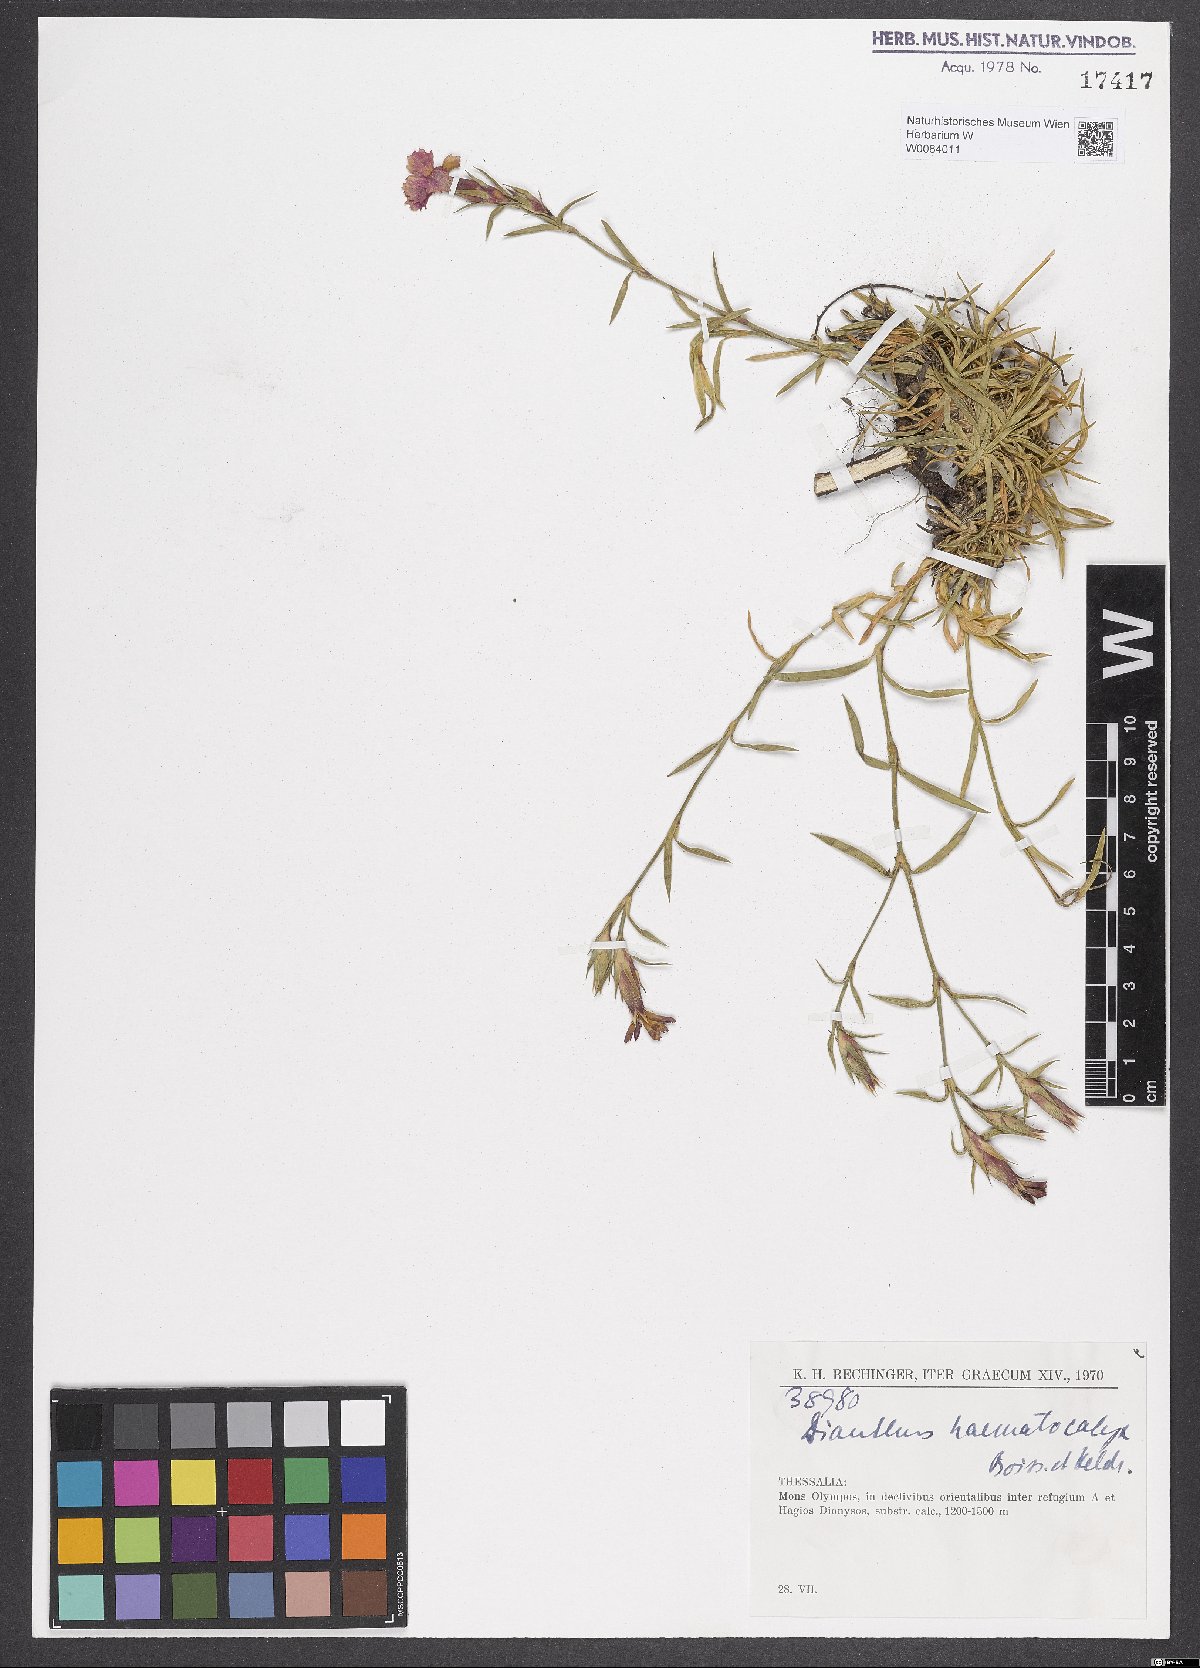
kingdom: Plantae
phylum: Tracheophyta
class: Magnoliopsida
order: Caryophyllales
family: Caryophyllaceae
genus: Dianthus
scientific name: Dianthus haematocalyx
